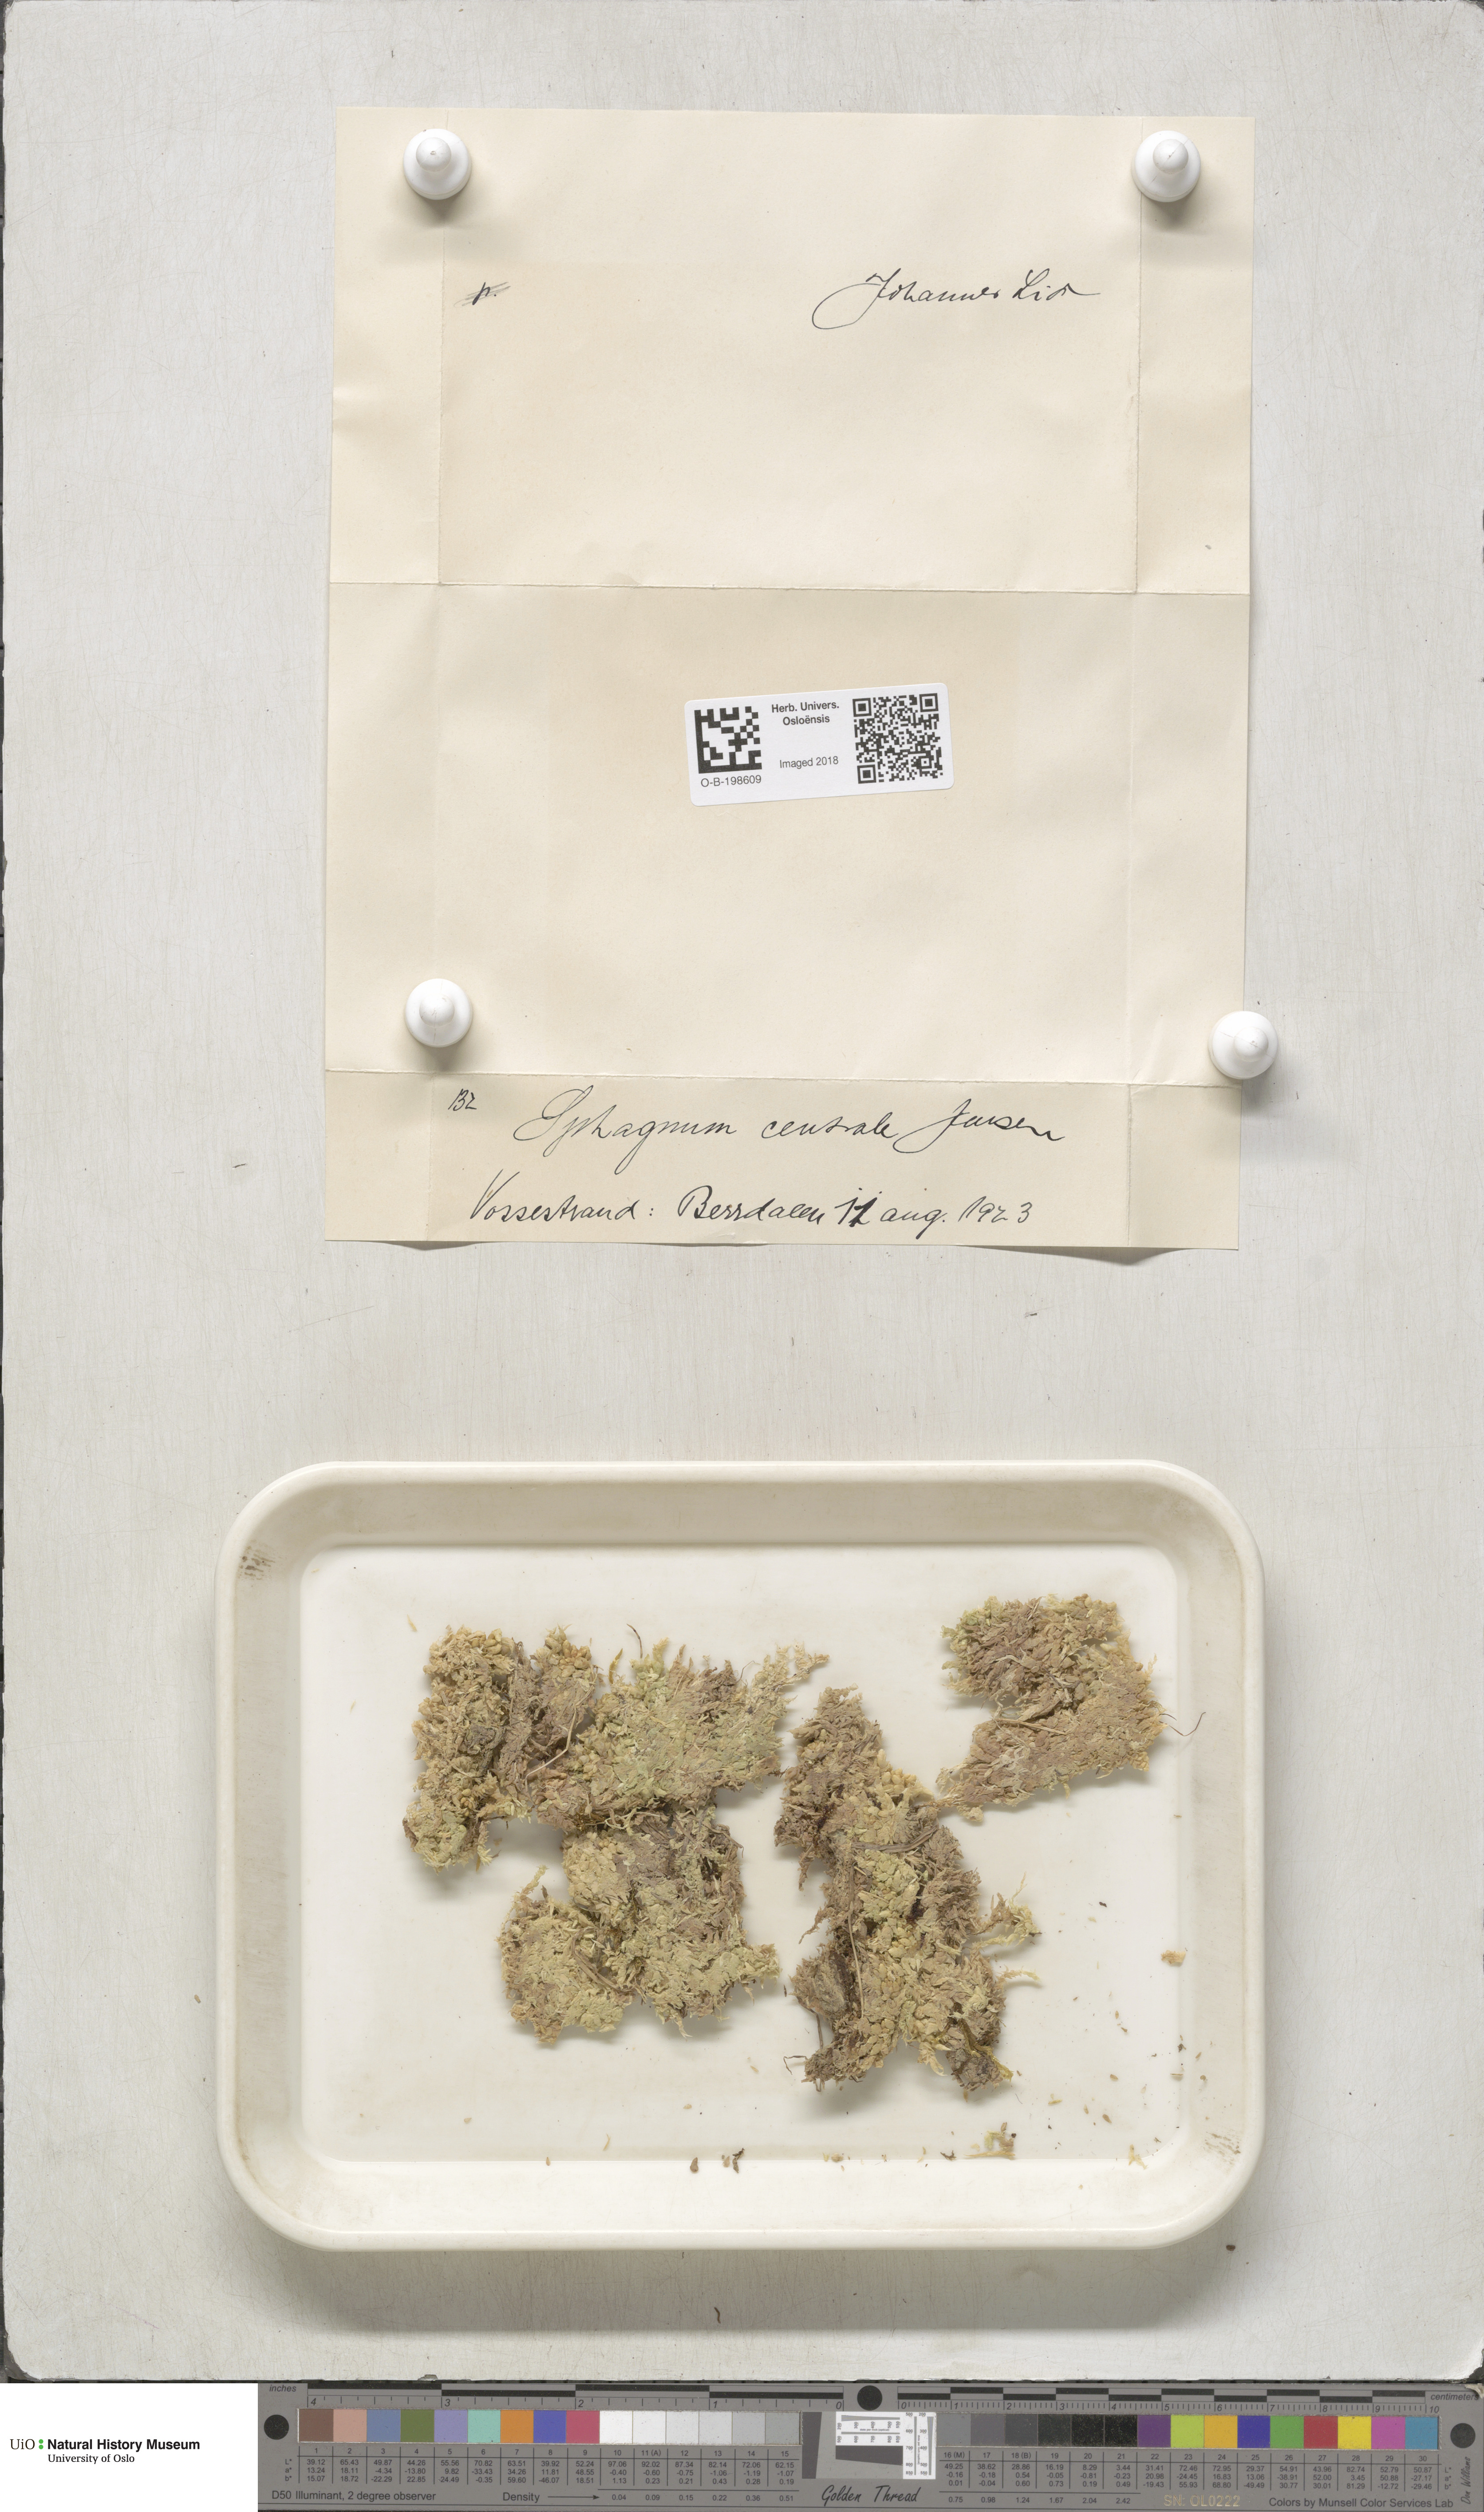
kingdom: Plantae
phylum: Bryophyta
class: Sphagnopsida
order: Sphagnales
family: Sphagnaceae
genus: Sphagnum
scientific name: Sphagnum centrale
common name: Central peat moss
